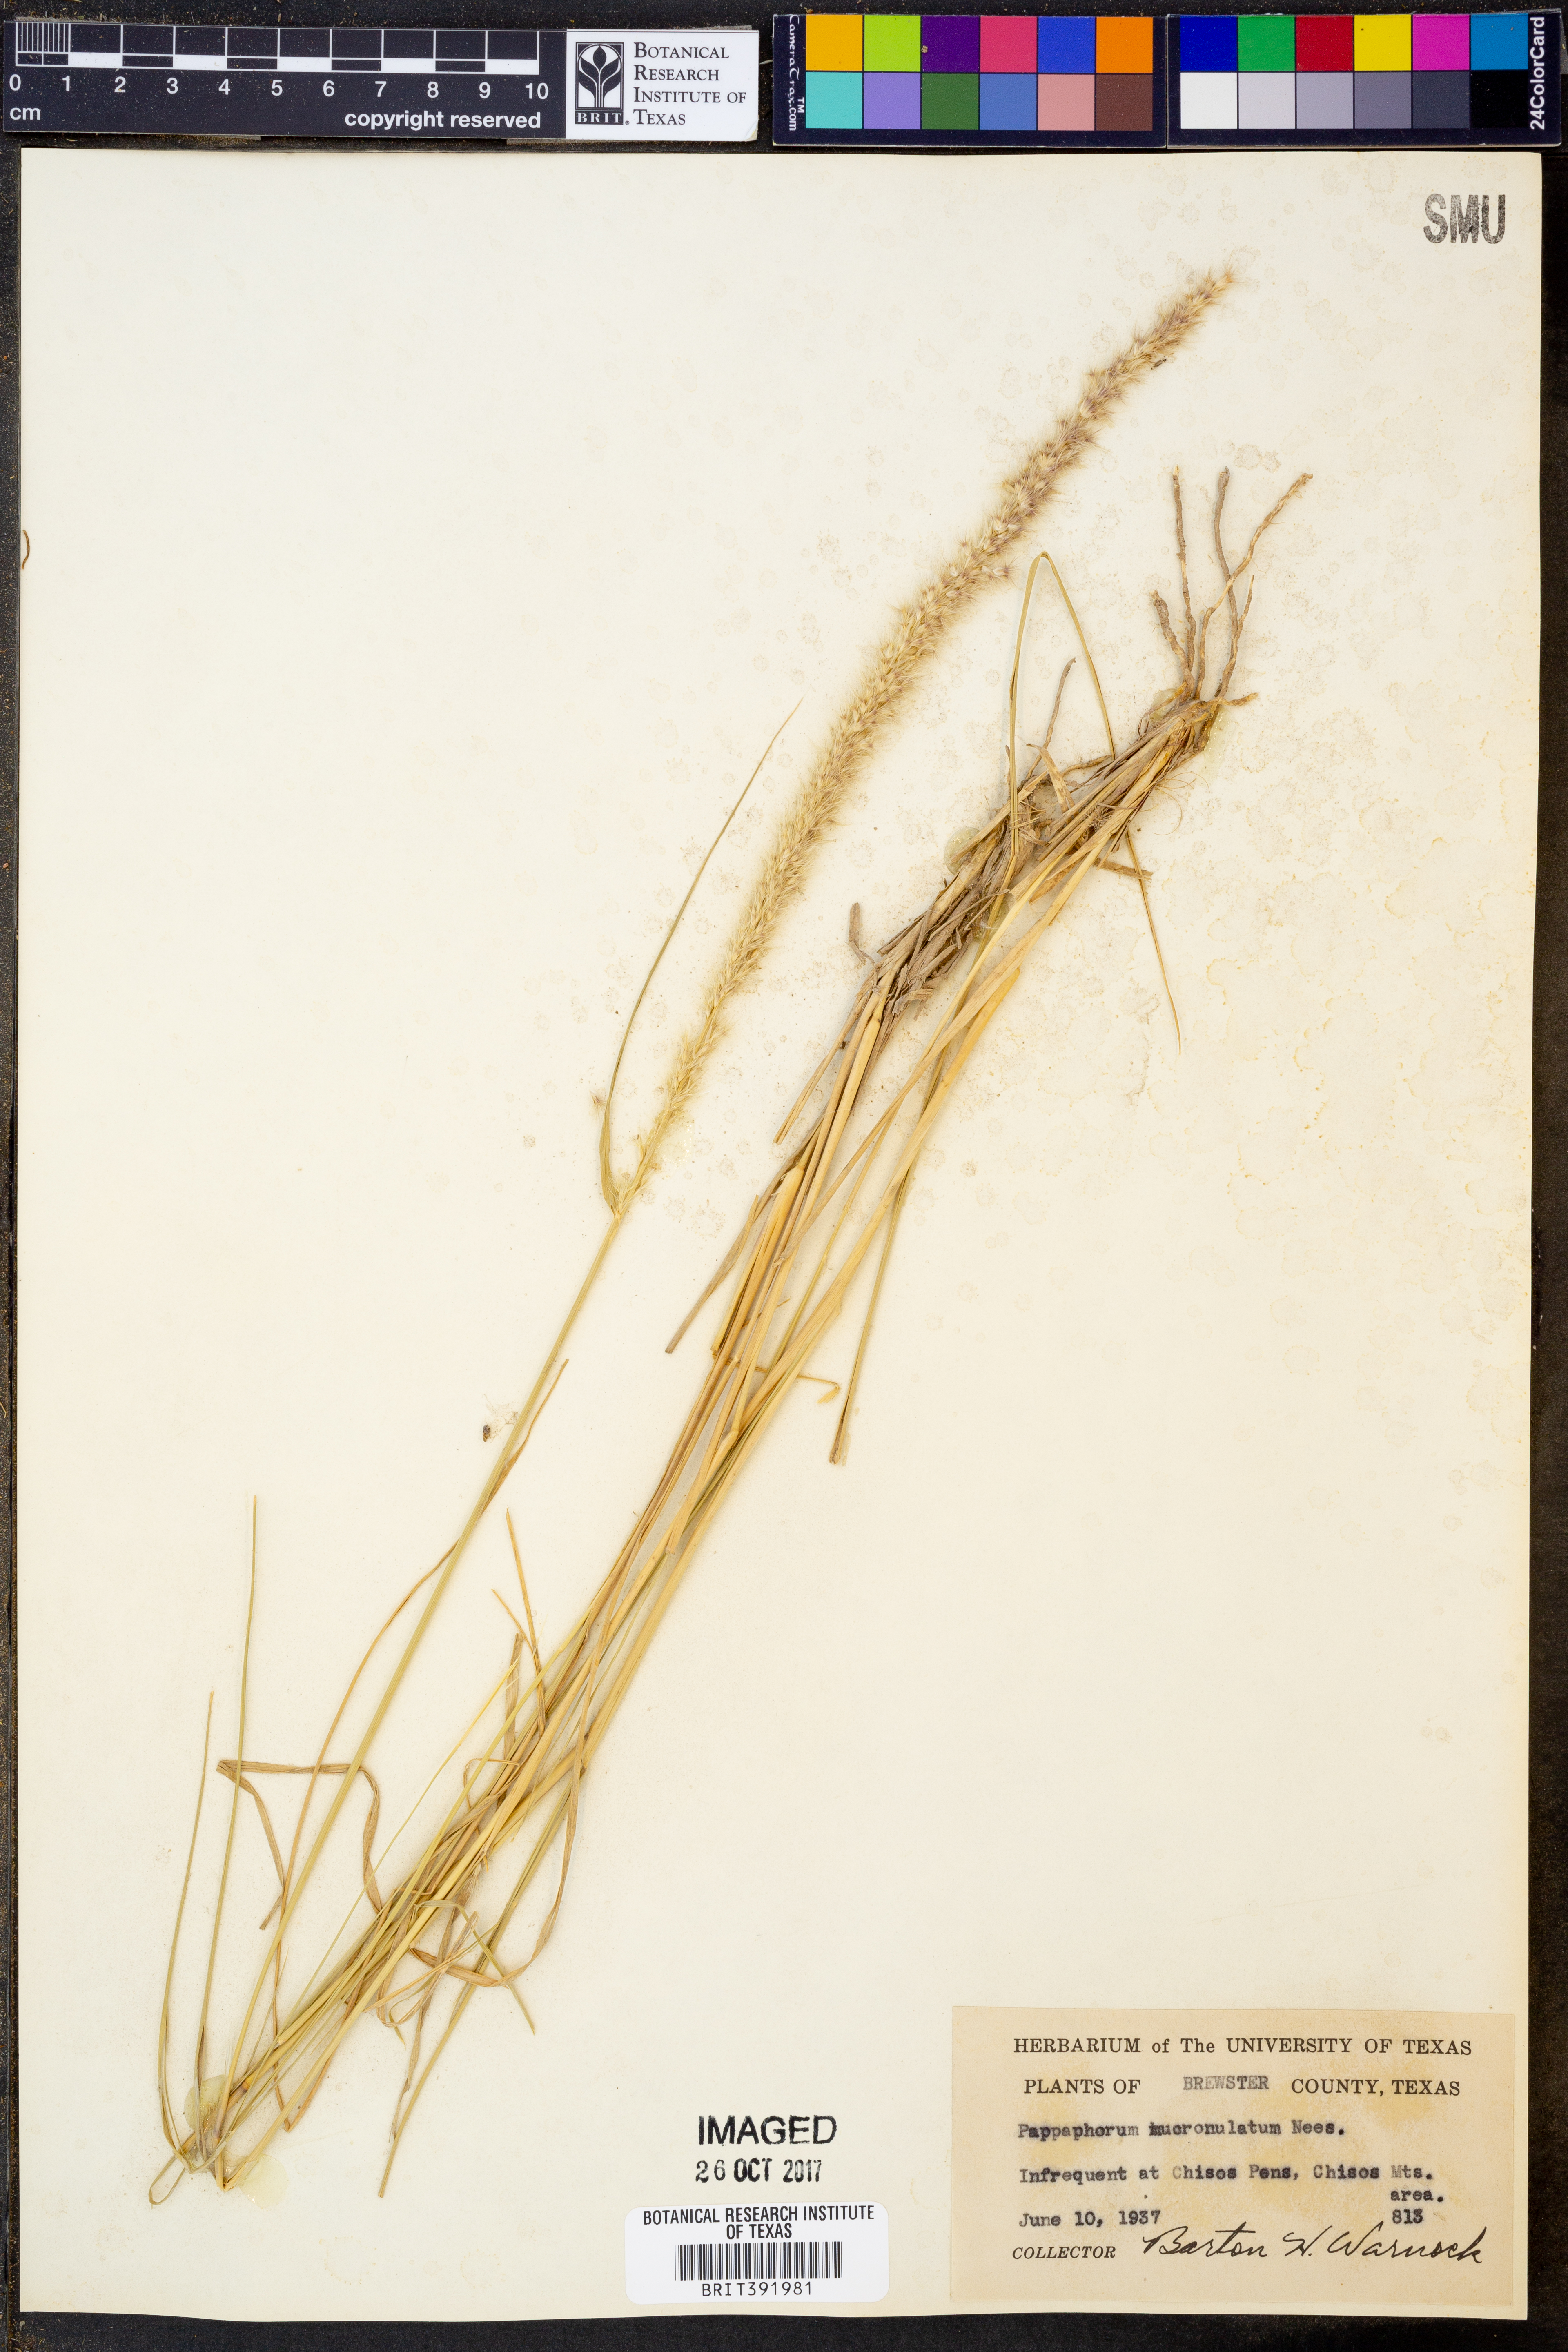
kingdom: Plantae
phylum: Tracheophyta
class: Liliopsida
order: Poales
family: Poaceae
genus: Pappophorum
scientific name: Pappophorum mucronulatum
